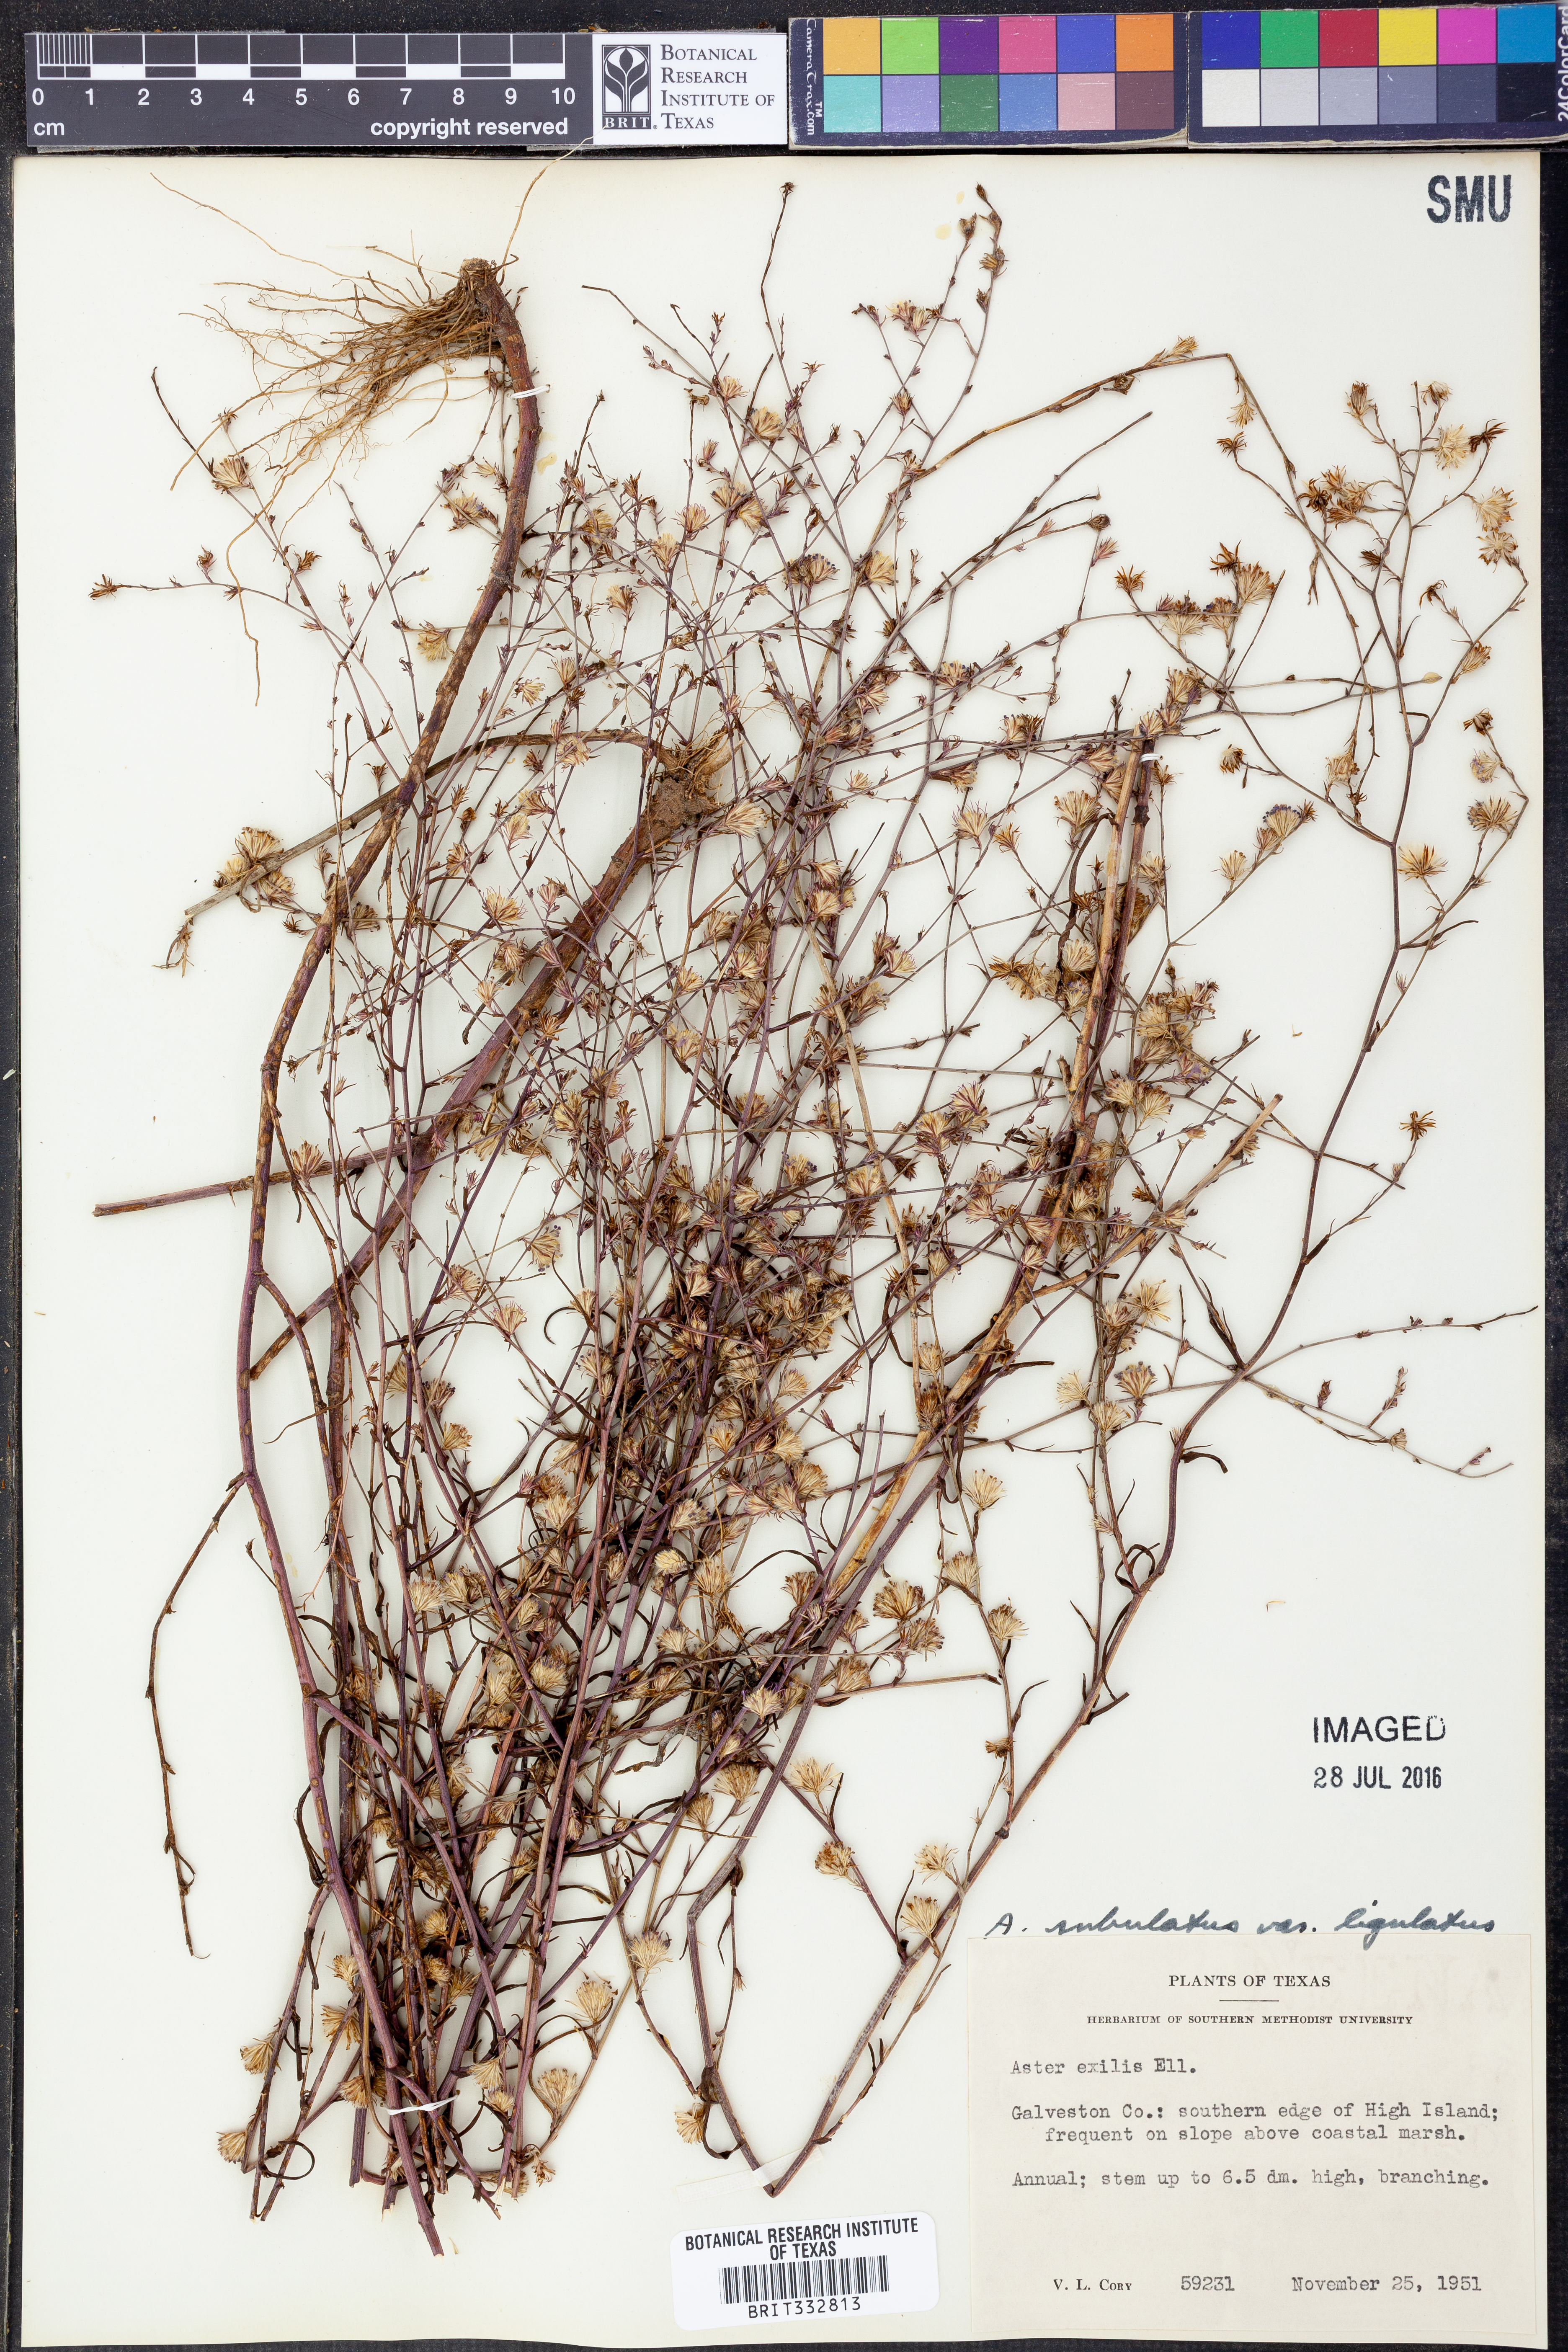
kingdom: Plantae
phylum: Tracheophyta
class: Magnoliopsida
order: Asterales
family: Asteraceae
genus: Symphyotrichum
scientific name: Symphyotrichum divaricatum
